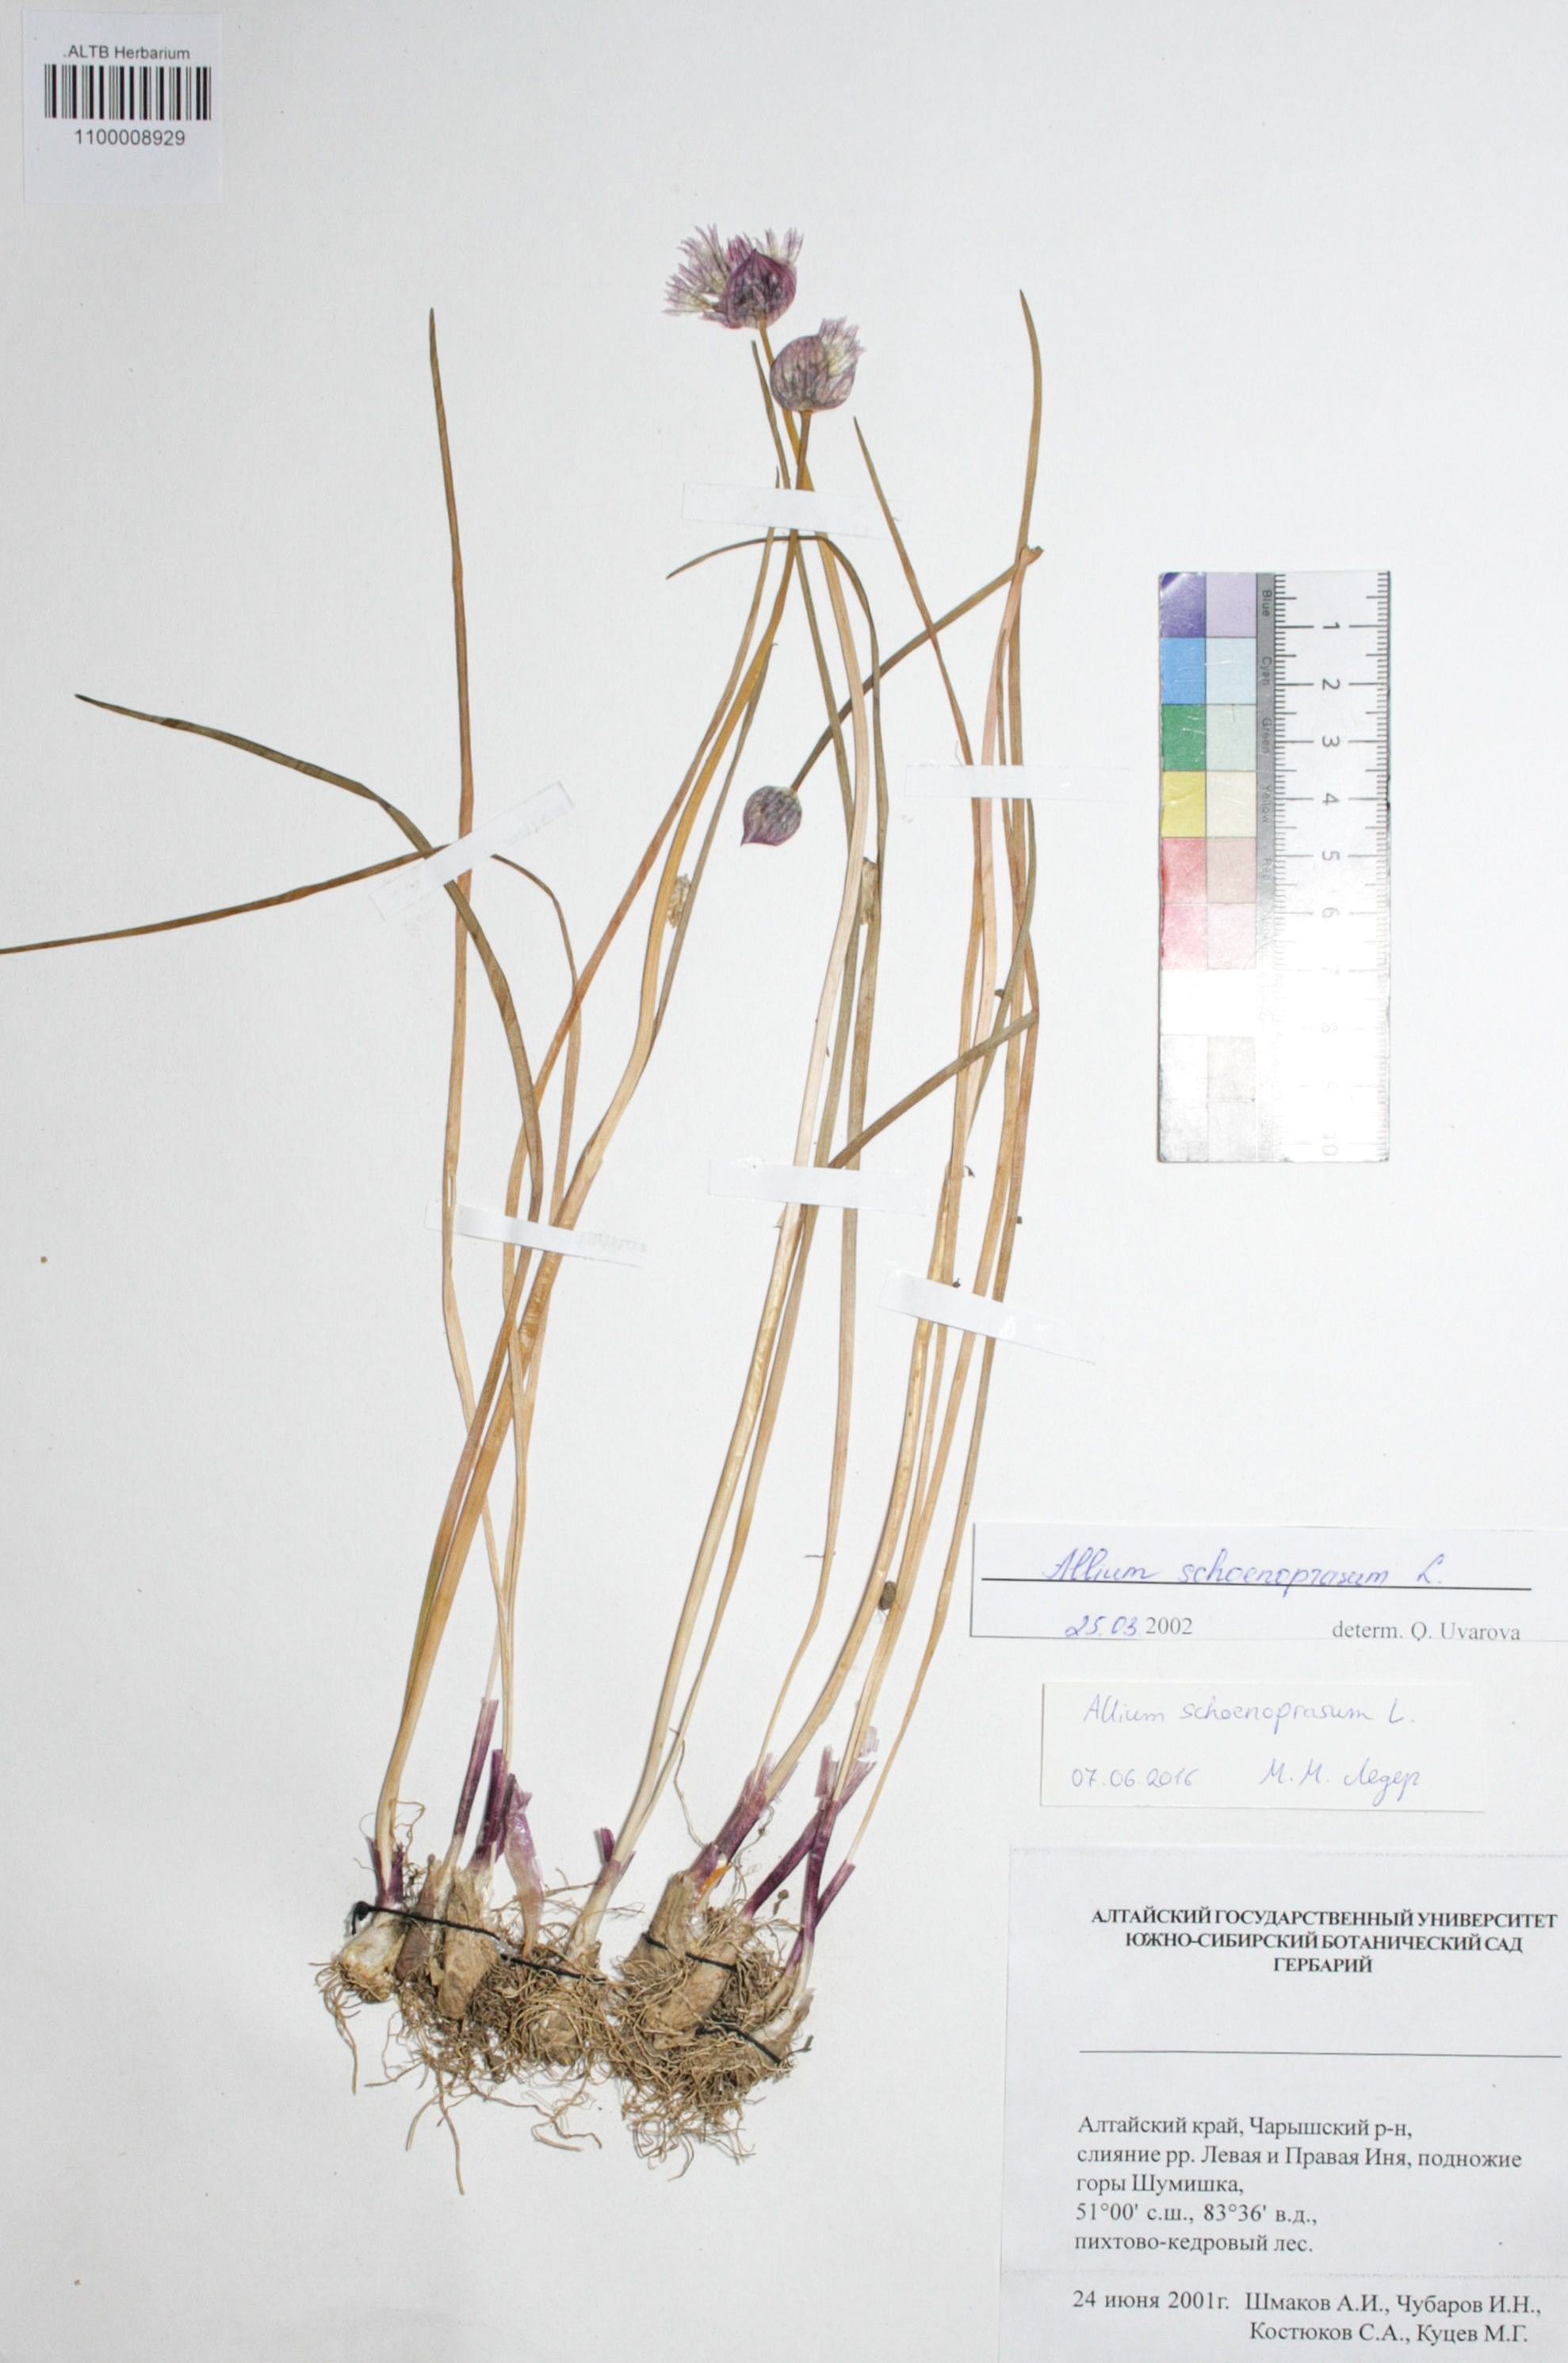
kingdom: Plantae
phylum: Tracheophyta
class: Liliopsida
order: Asparagales
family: Amaryllidaceae
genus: Allium
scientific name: Allium schoenoprasum
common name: Chives
